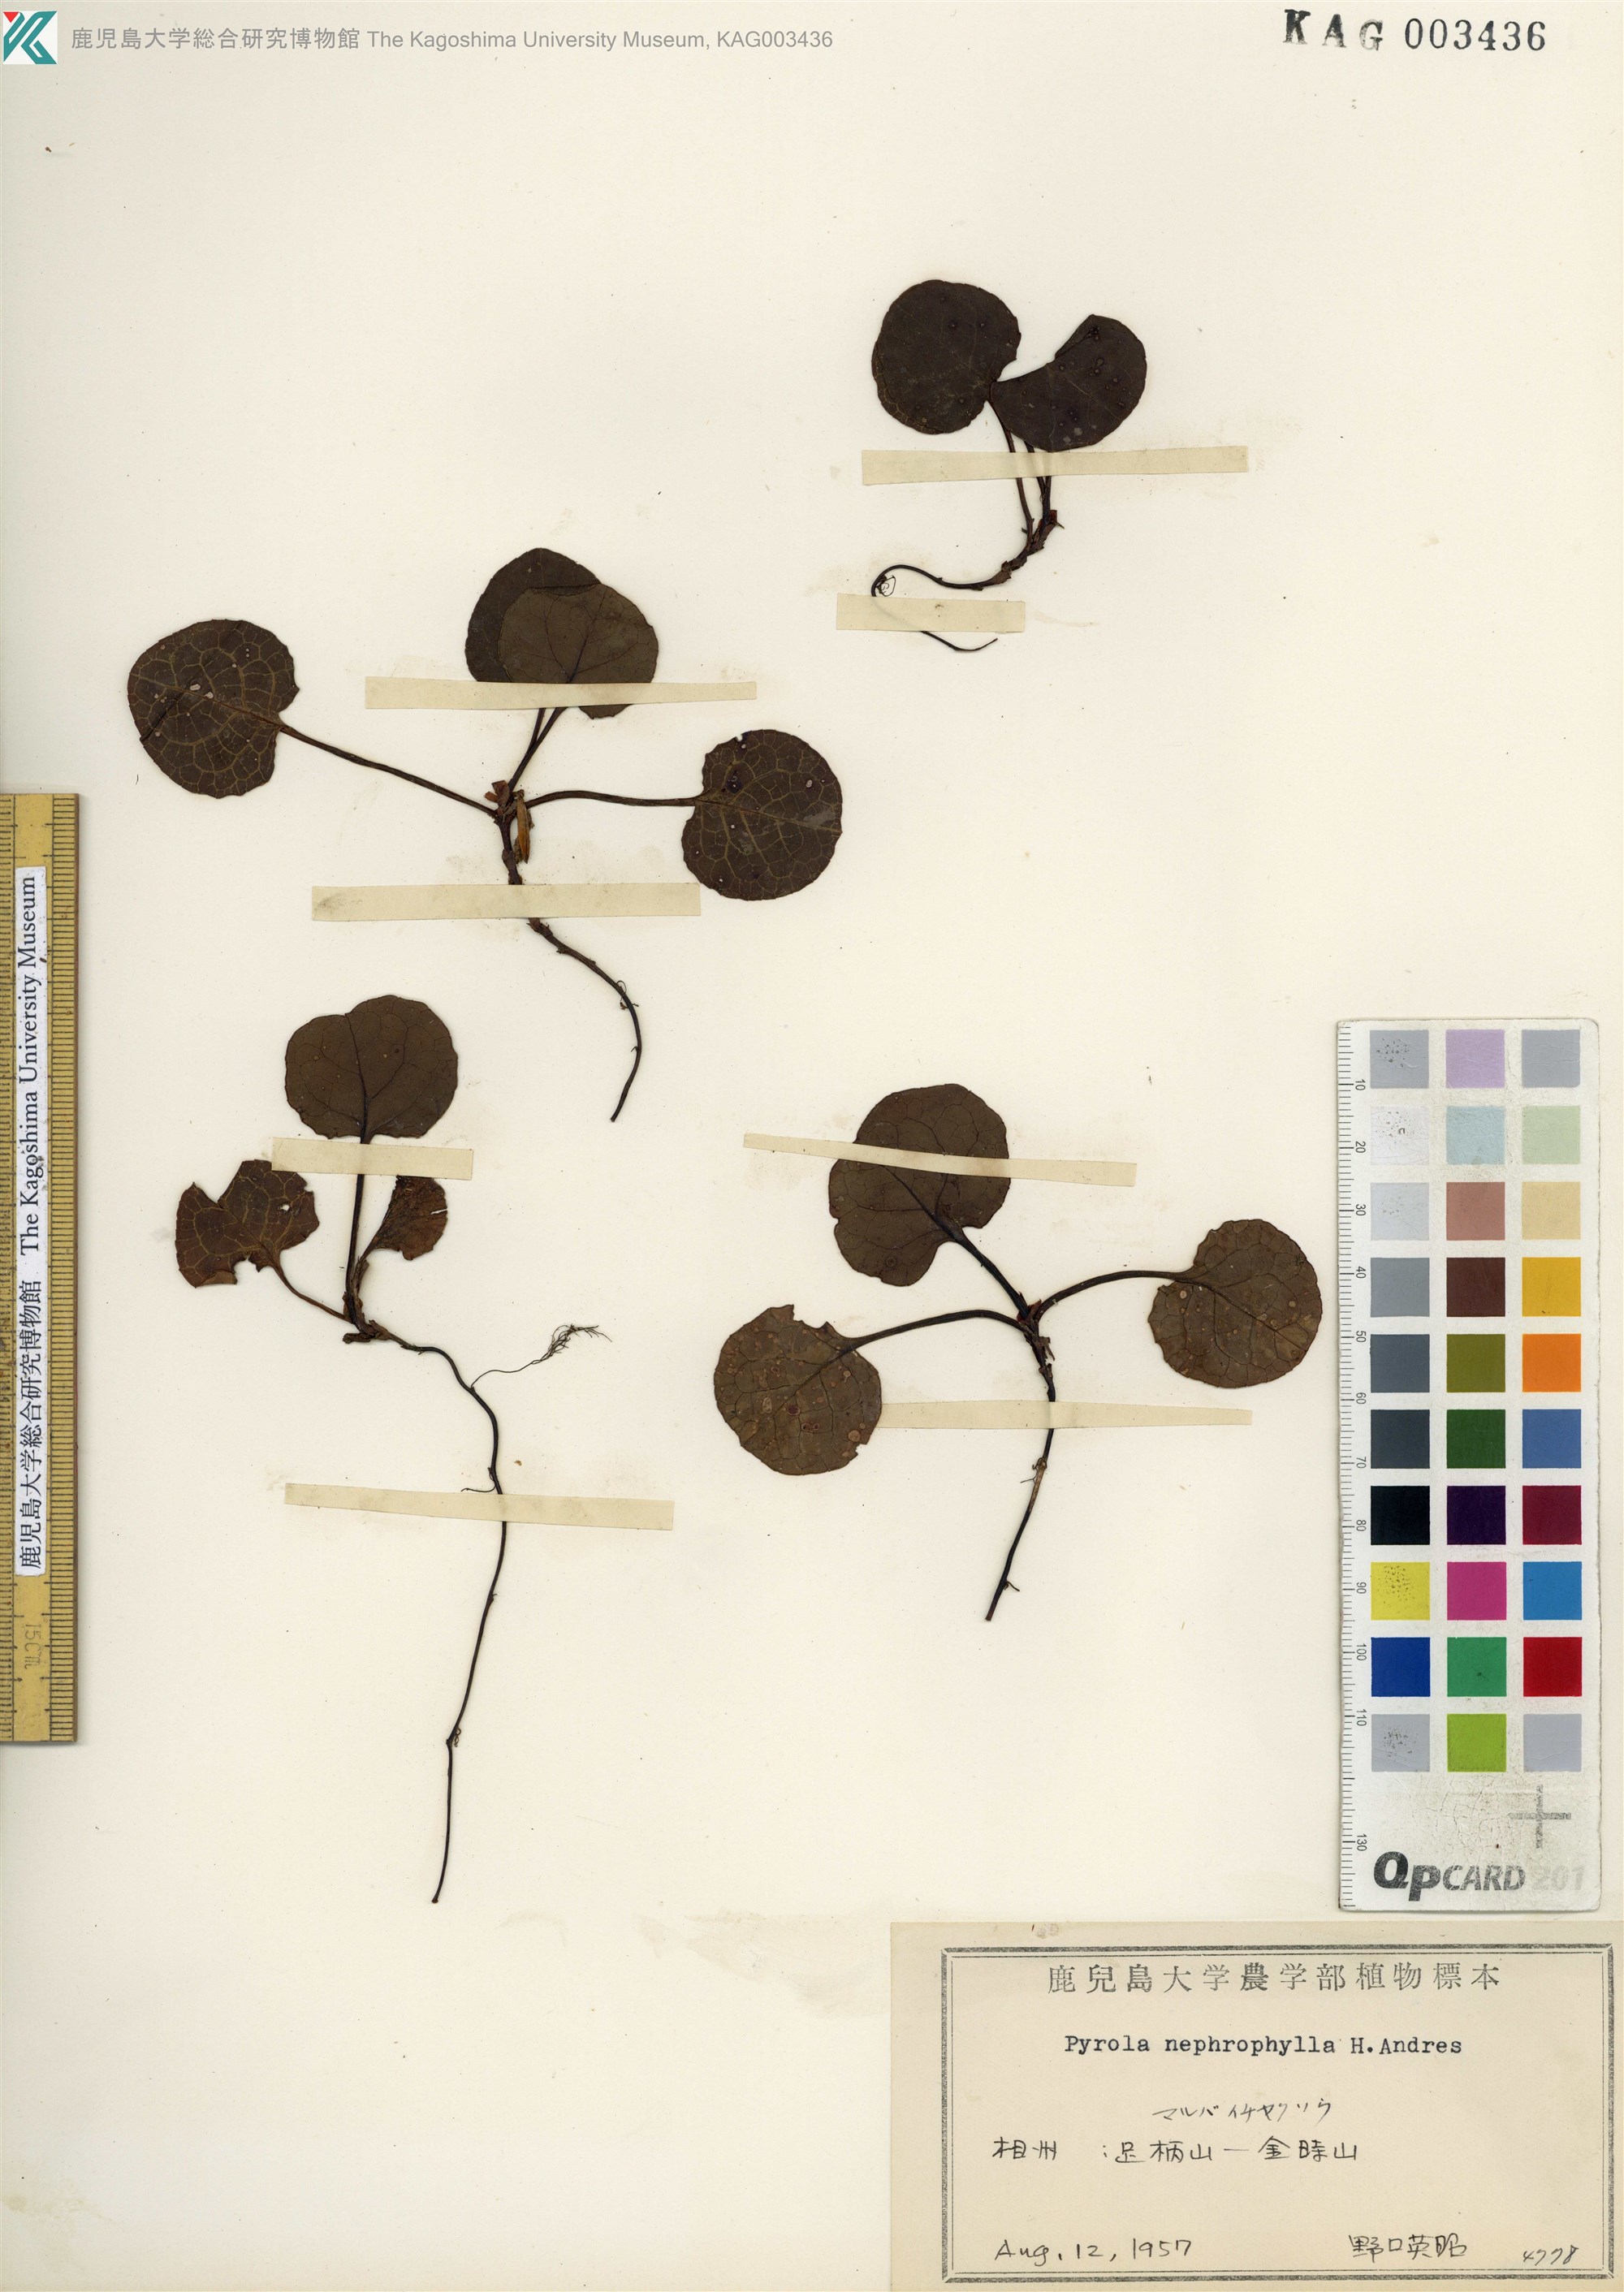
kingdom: Plantae
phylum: Tracheophyta
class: Magnoliopsida
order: Ericales
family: Ericaceae
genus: Pyrola
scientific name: Pyrola nephrophylla
